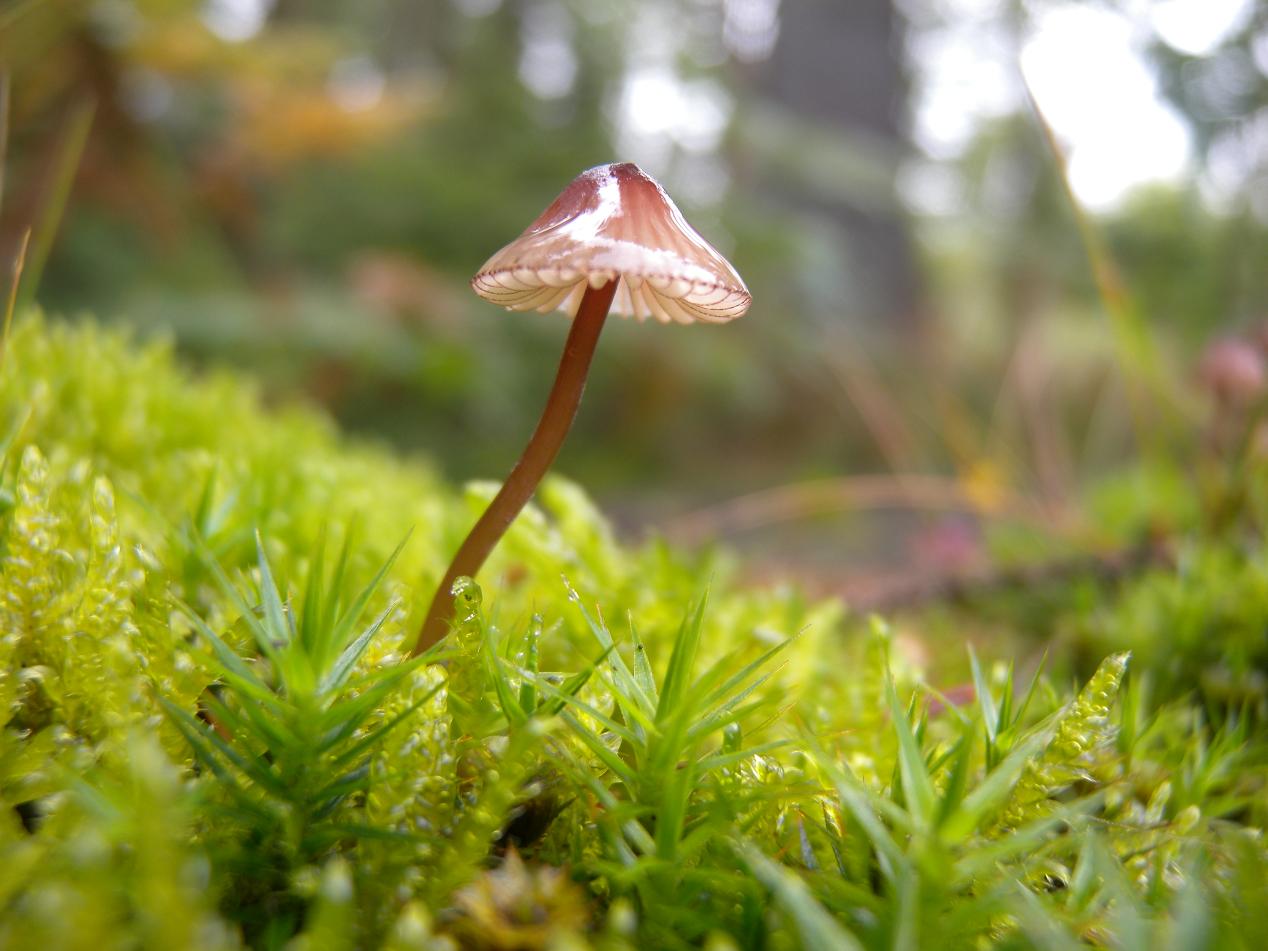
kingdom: Fungi
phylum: Basidiomycota
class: Agaricomycetes
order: Agaricales
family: Mycenaceae
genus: Mycena
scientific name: Mycena sanguinolenta
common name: rødmælket huesvamp
